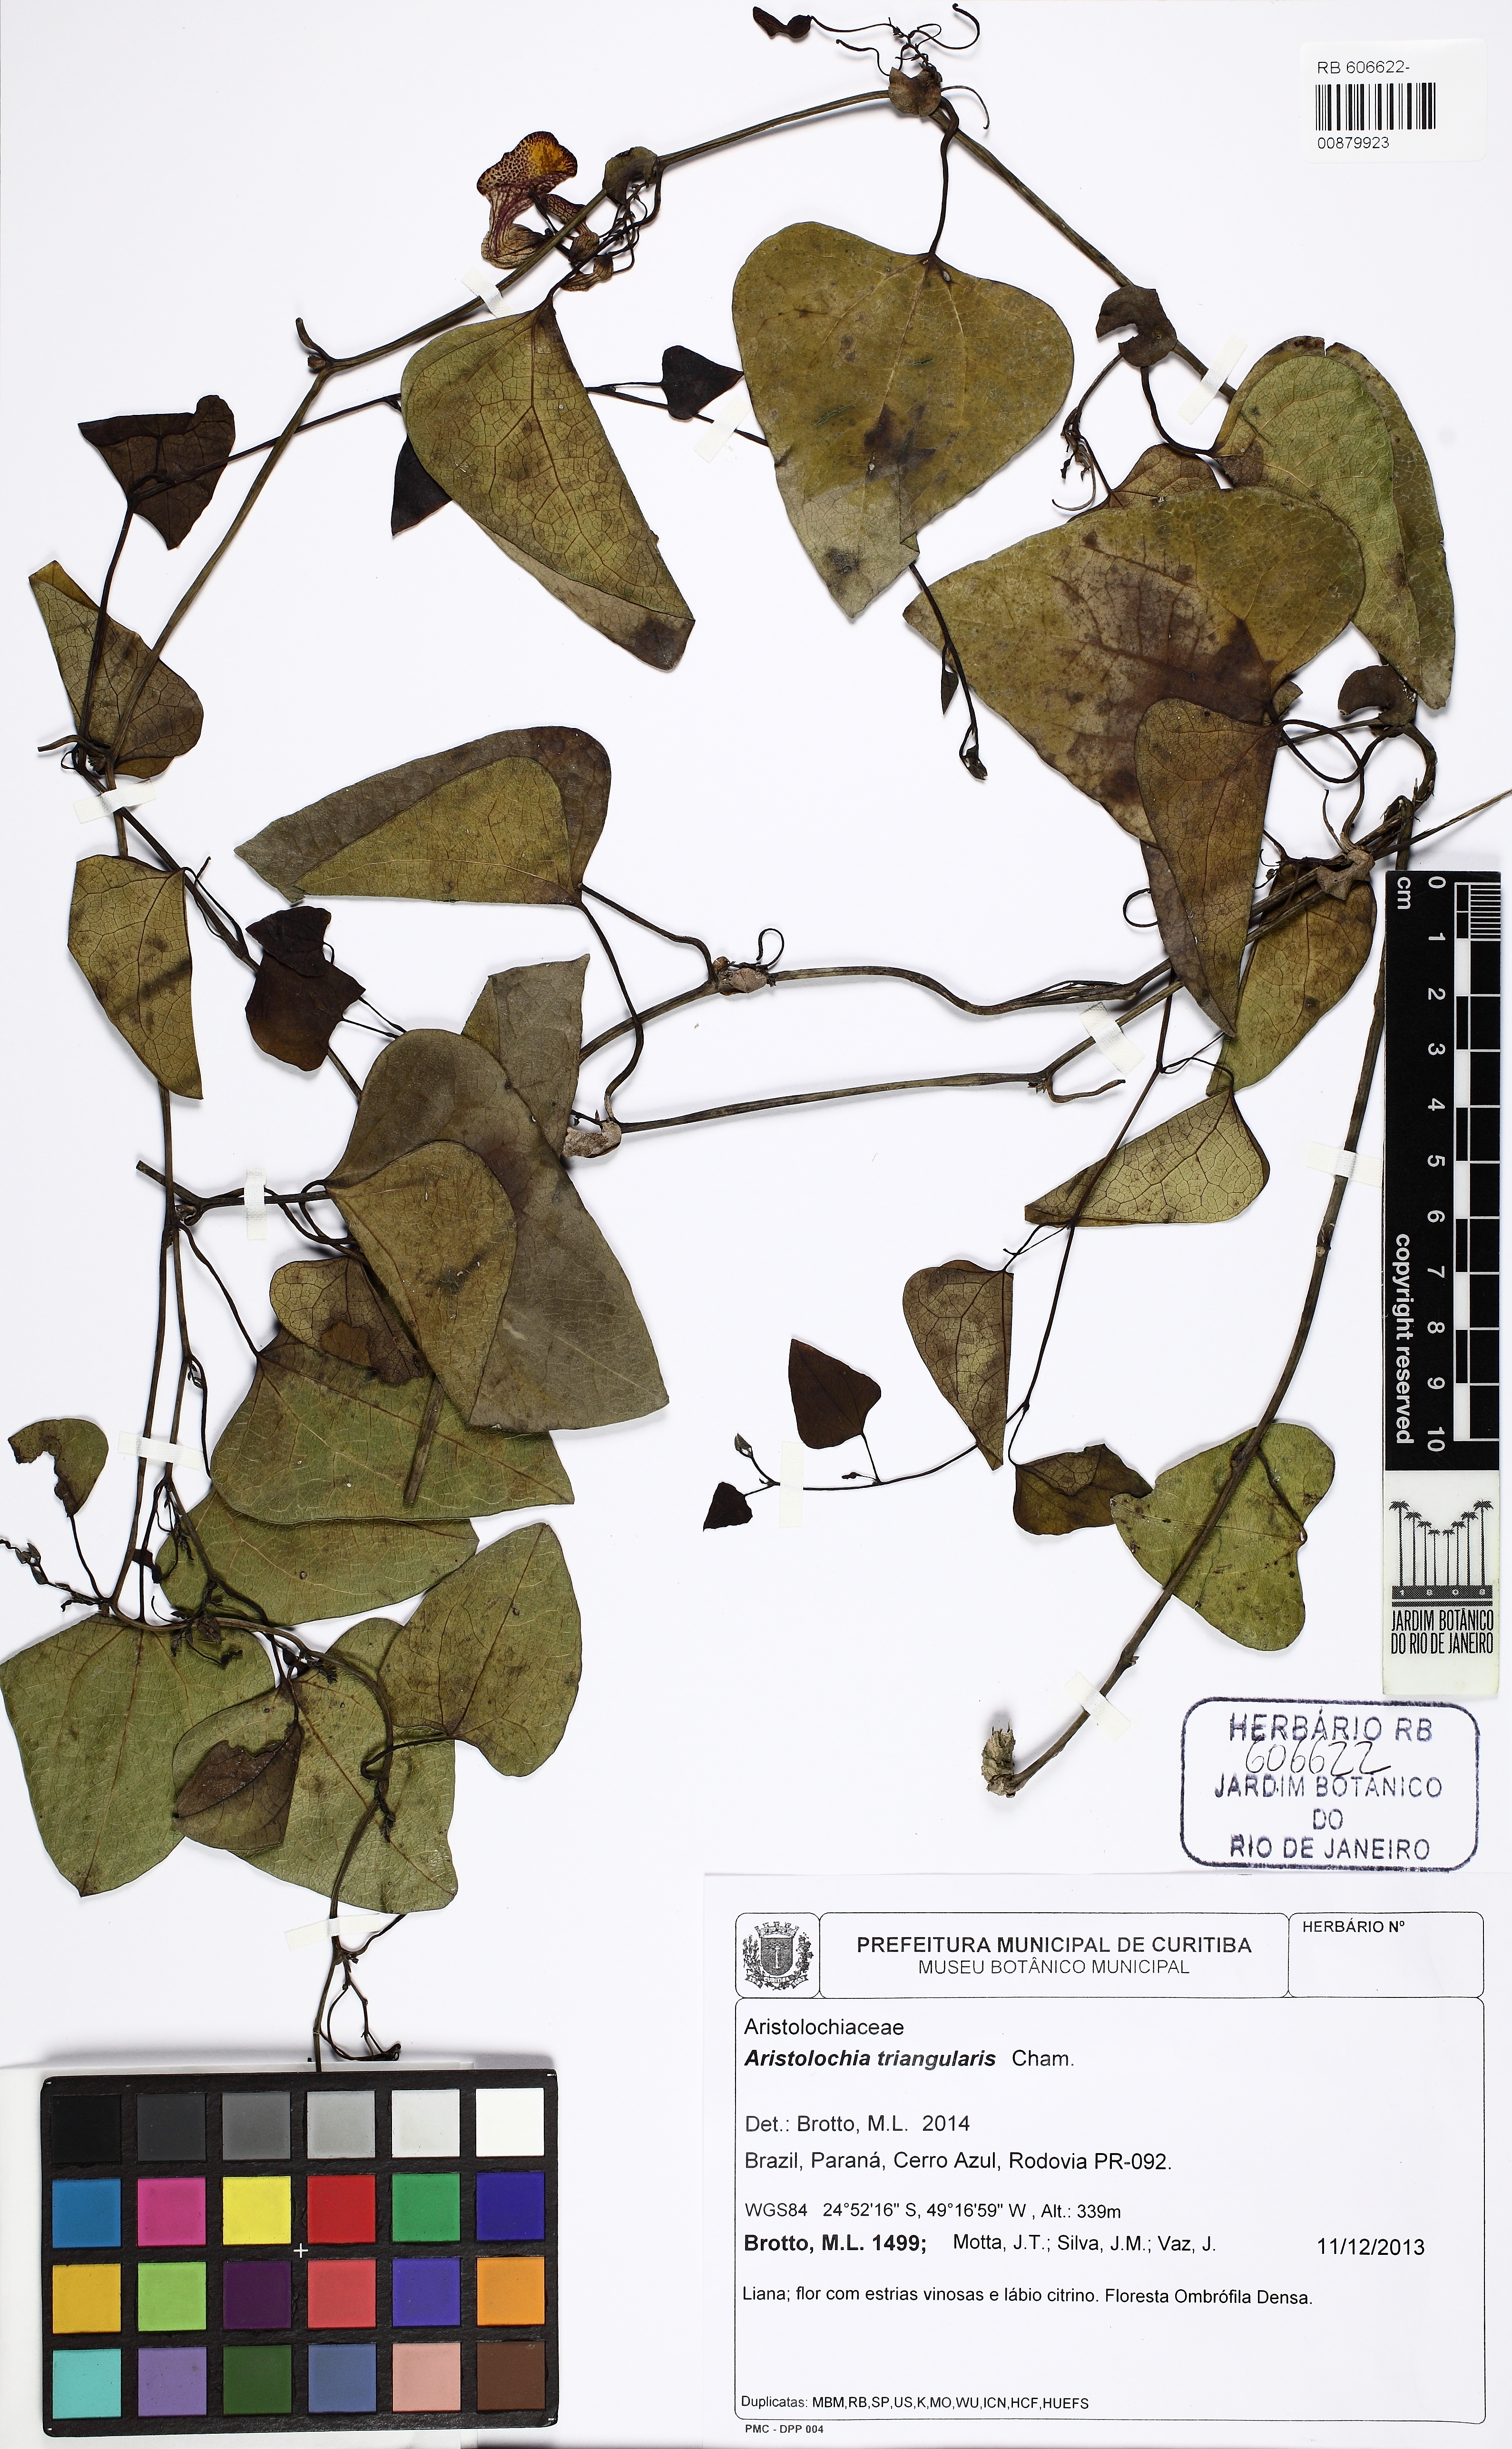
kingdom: Plantae
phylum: Tracheophyta
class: Magnoliopsida
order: Piperales
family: Aristolochiaceae
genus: Aristolochia
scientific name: Aristolochia triangularis
